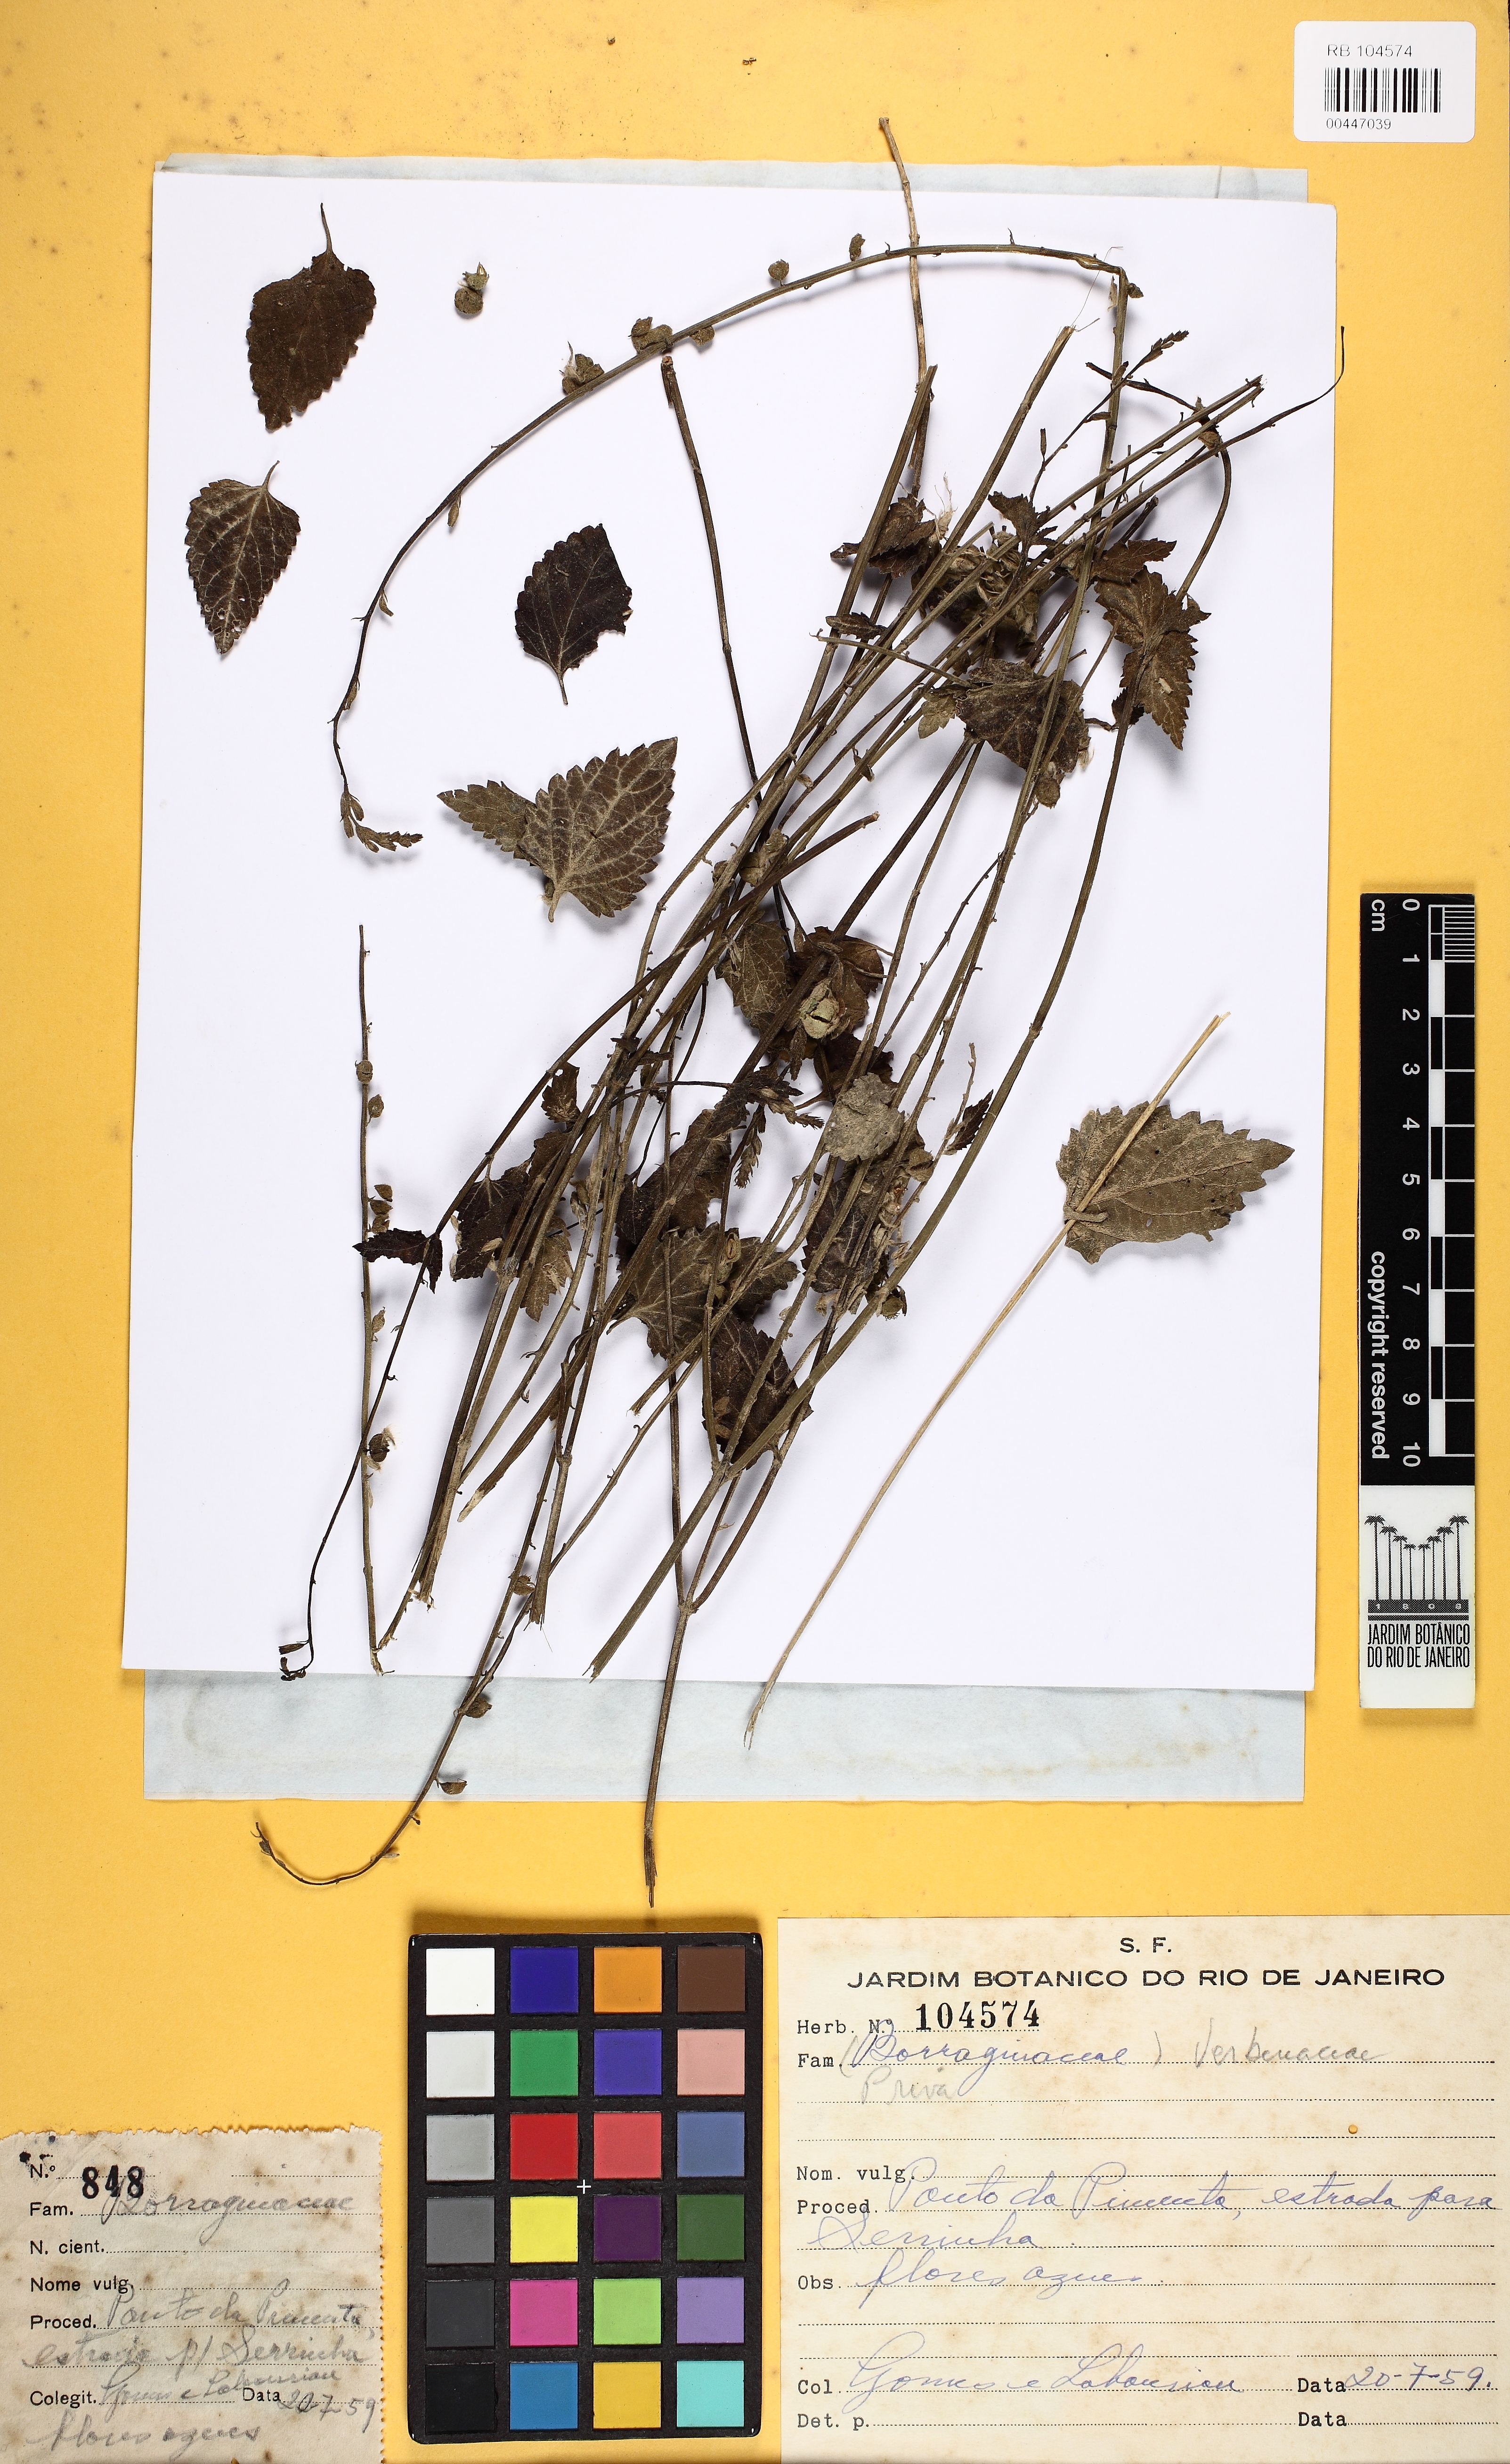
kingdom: Plantae
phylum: Tracheophyta
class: Magnoliopsida
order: Lamiales
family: Verbenaceae
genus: Priva
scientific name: Priva bahiensis
